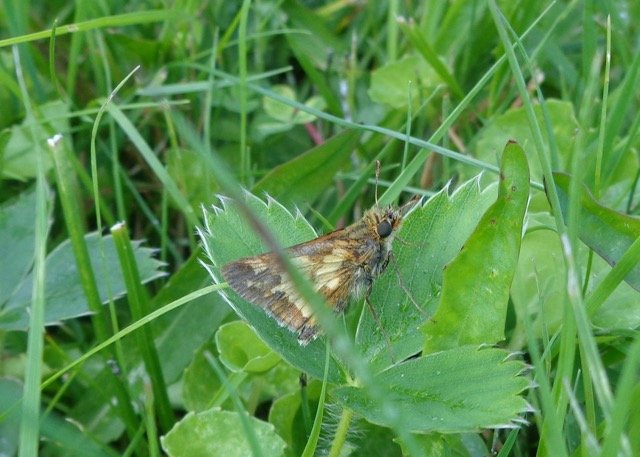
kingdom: Animalia
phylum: Arthropoda
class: Insecta
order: Lepidoptera
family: Hesperiidae
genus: Polites
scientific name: Polites coras
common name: Peck's Skipper
